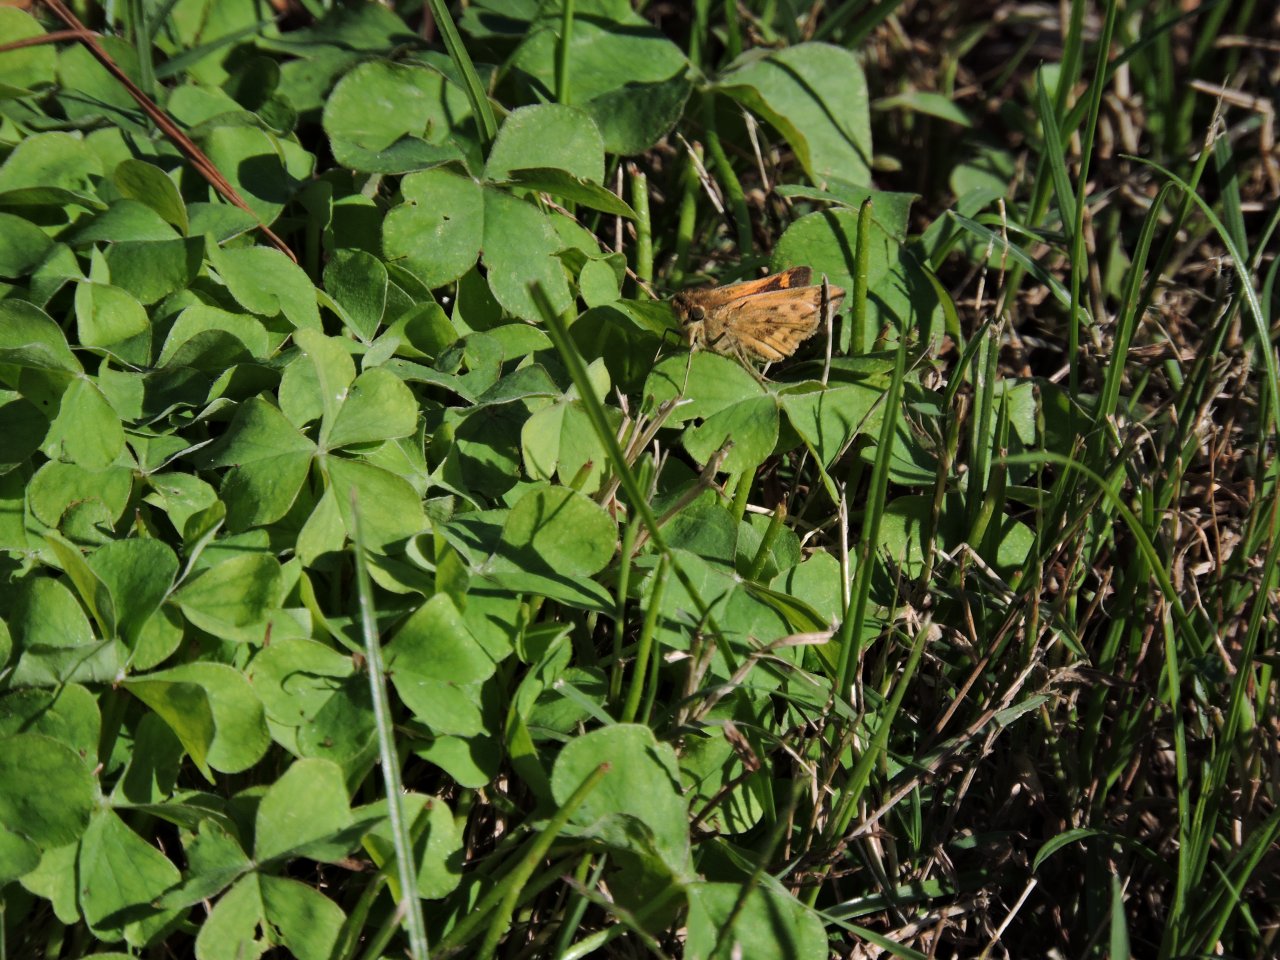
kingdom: Animalia
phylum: Arthropoda
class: Insecta
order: Lepidoptera
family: Hesperiidae
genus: Hylephila
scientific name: Hylephila phyleus
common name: Fiery Skipper
